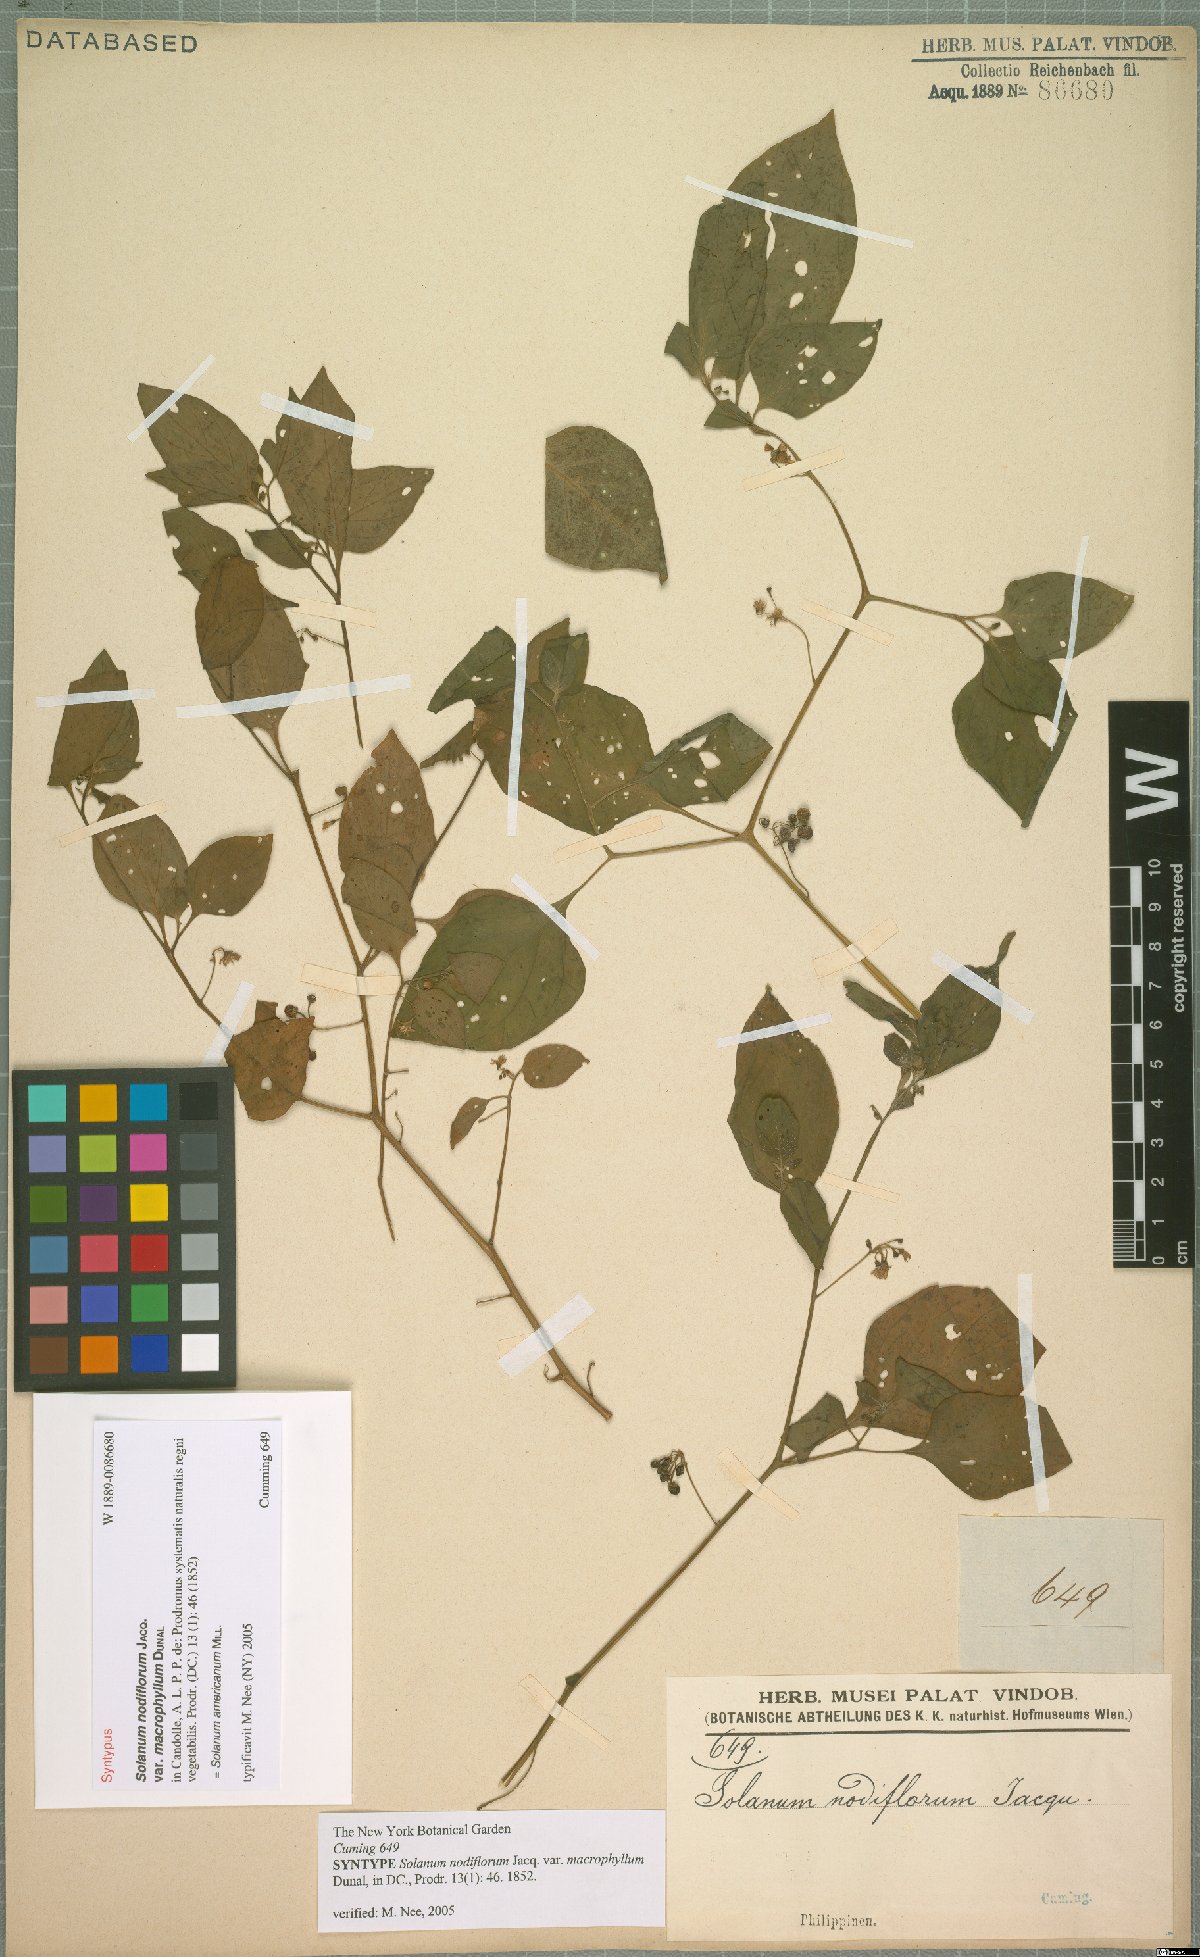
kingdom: Plantae
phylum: Tracheophyta
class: Magnoliopsida
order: Solanales
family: Solanaceae
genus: Solanum
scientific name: Solanum americanum
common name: American black nightshade
